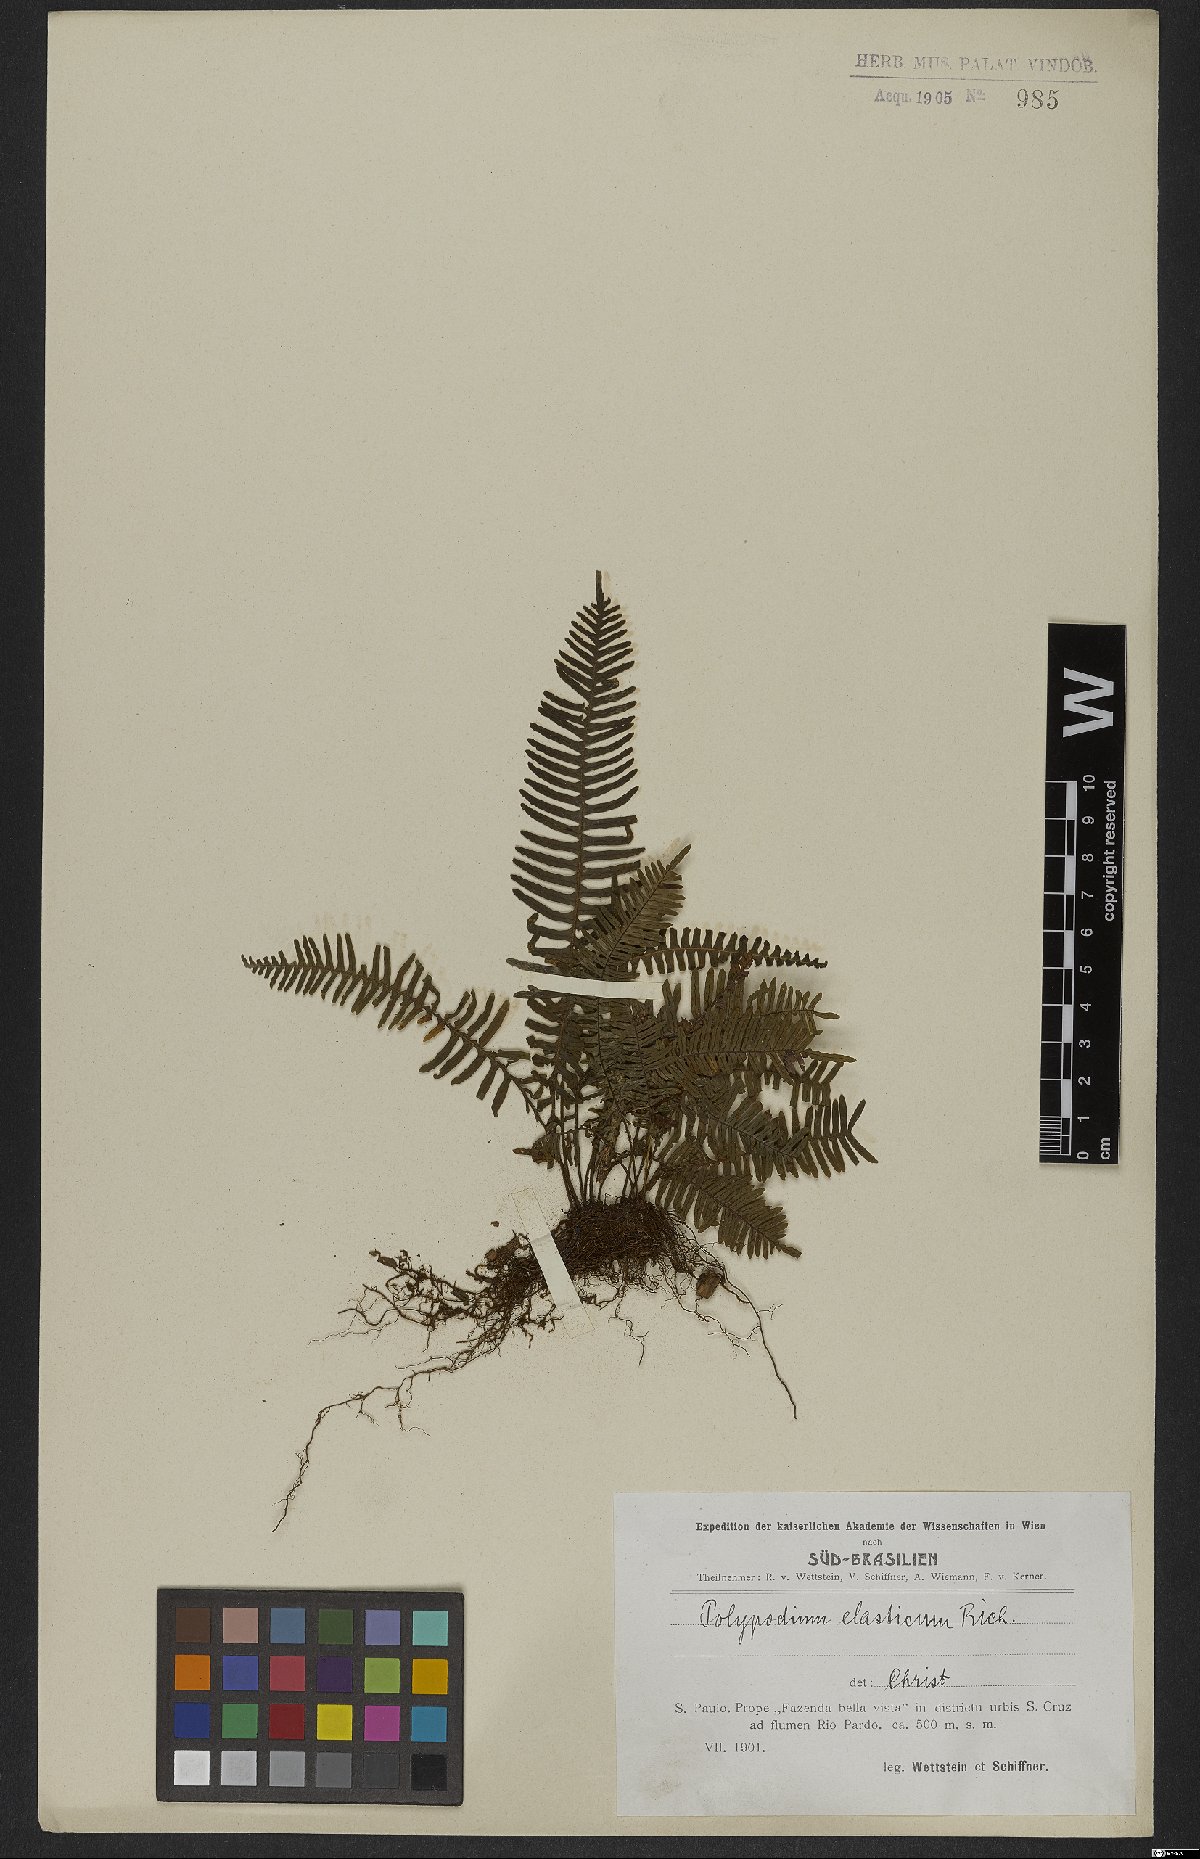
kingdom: Plantae
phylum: Tracheophyta
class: Polypodiopsida
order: Polypodiales
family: Polypodiaceae
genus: Pecluma
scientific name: Pecluma plumula
